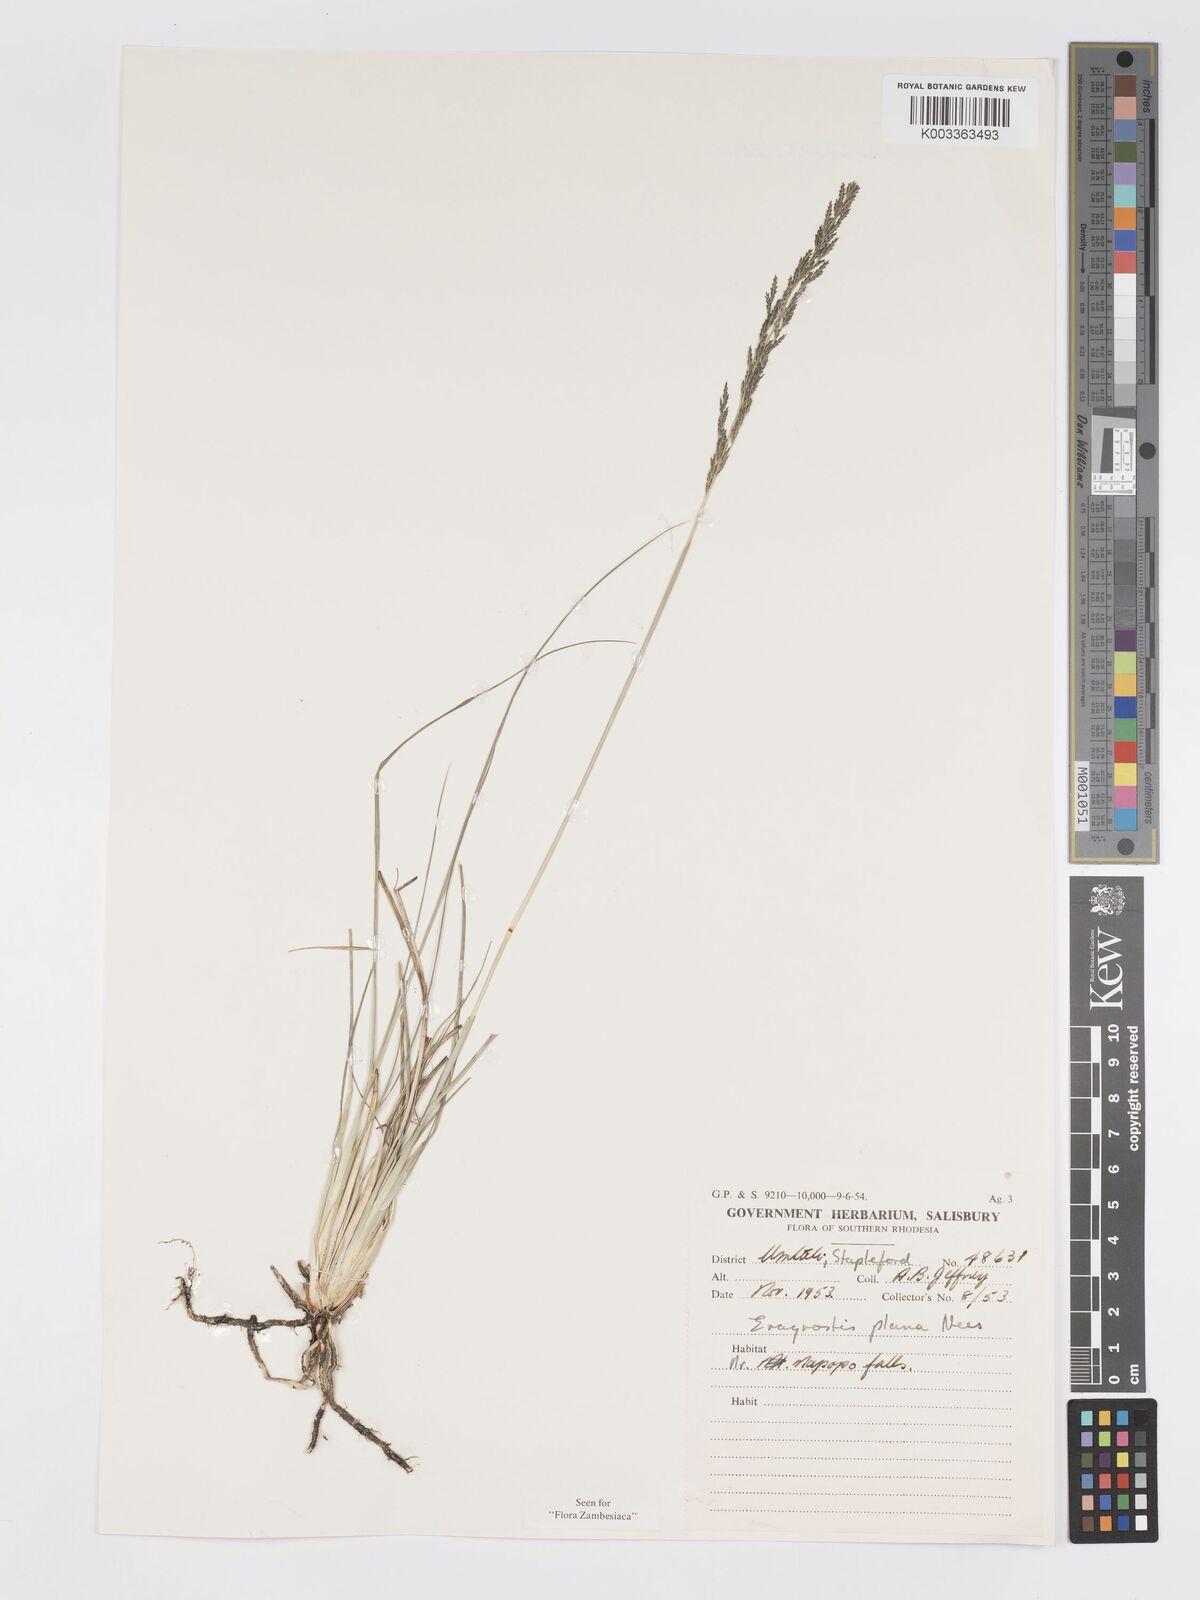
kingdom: Plantae
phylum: Tracheophyta
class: Liliopsida
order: Poales
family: Poaceae
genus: Eragrostis
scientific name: Eragrostis plana
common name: South african lovegrass
